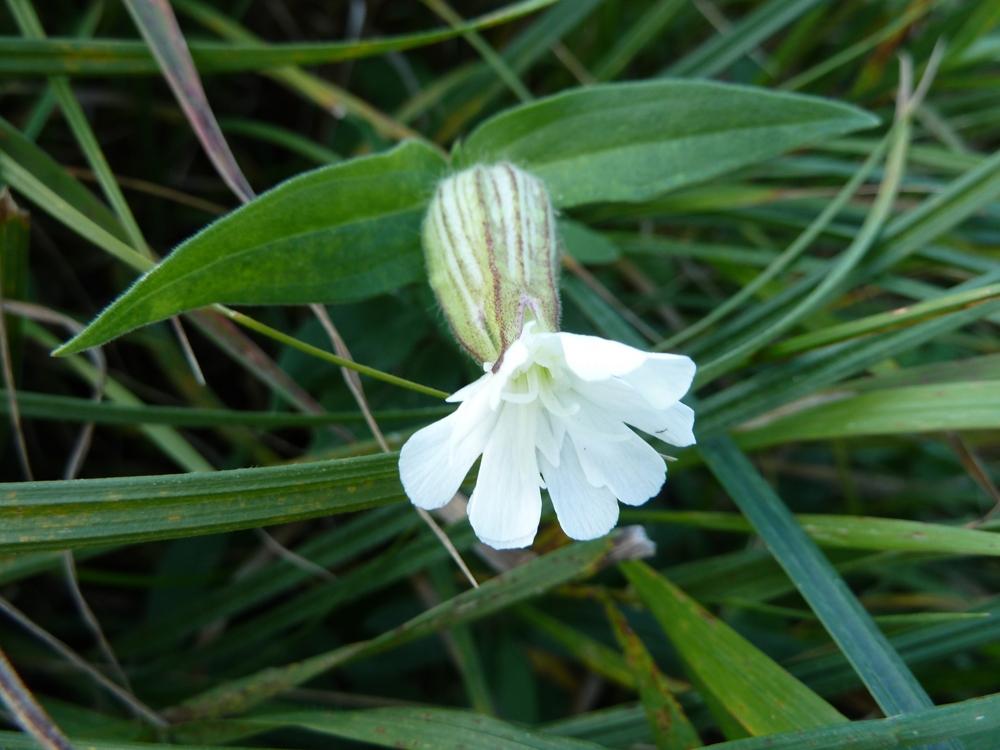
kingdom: Plantae
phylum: Tracheophyta
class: Magnoliopsida
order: Caryophyllales
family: Caryophyllaceae
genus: Silene
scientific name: Silene latifolia
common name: White campion
